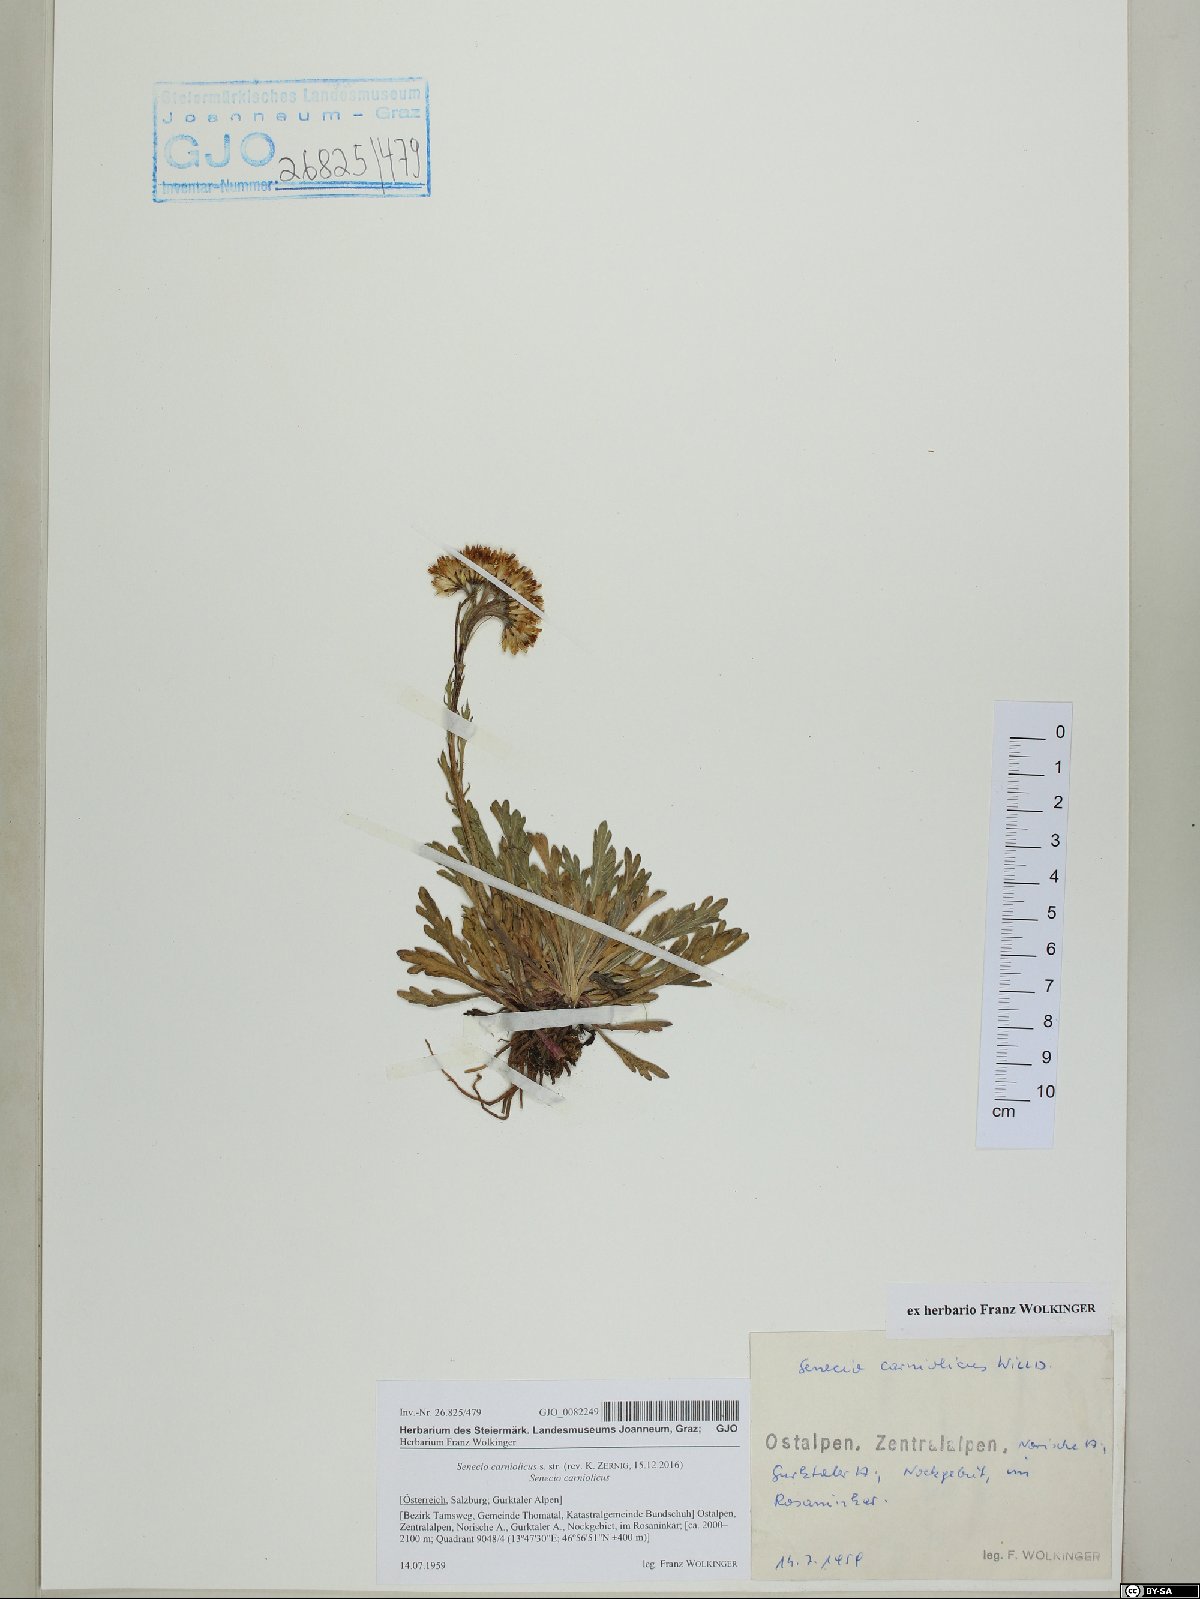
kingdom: Plantae
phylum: Tracheophyta
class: Magnoliopsida
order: Asterales
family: Asteraceae
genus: Jacobaea
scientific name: Jacobaea carniolica
